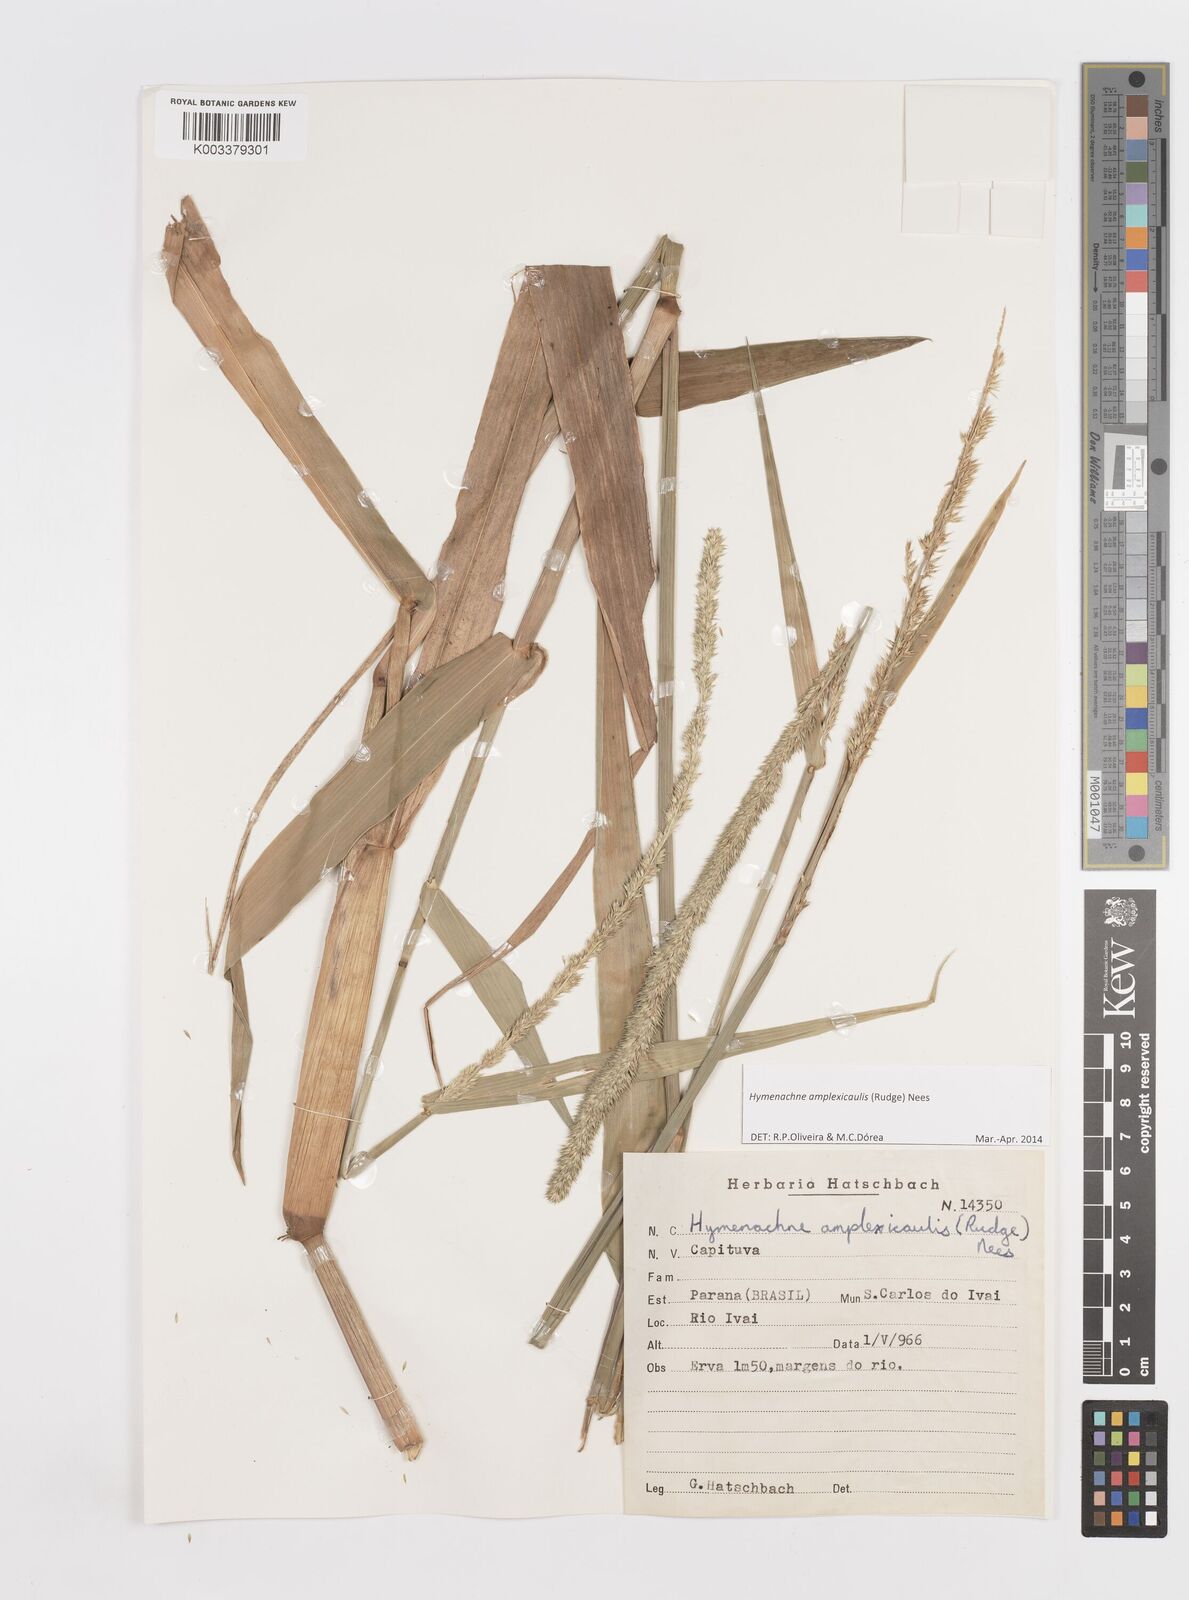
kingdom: Plantae
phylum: Tracheophyta
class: Liliopsida
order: Poales
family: Poaceae
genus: Hymenachne
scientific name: Hymenachne amplexicaulis
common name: Olive hymenachne
